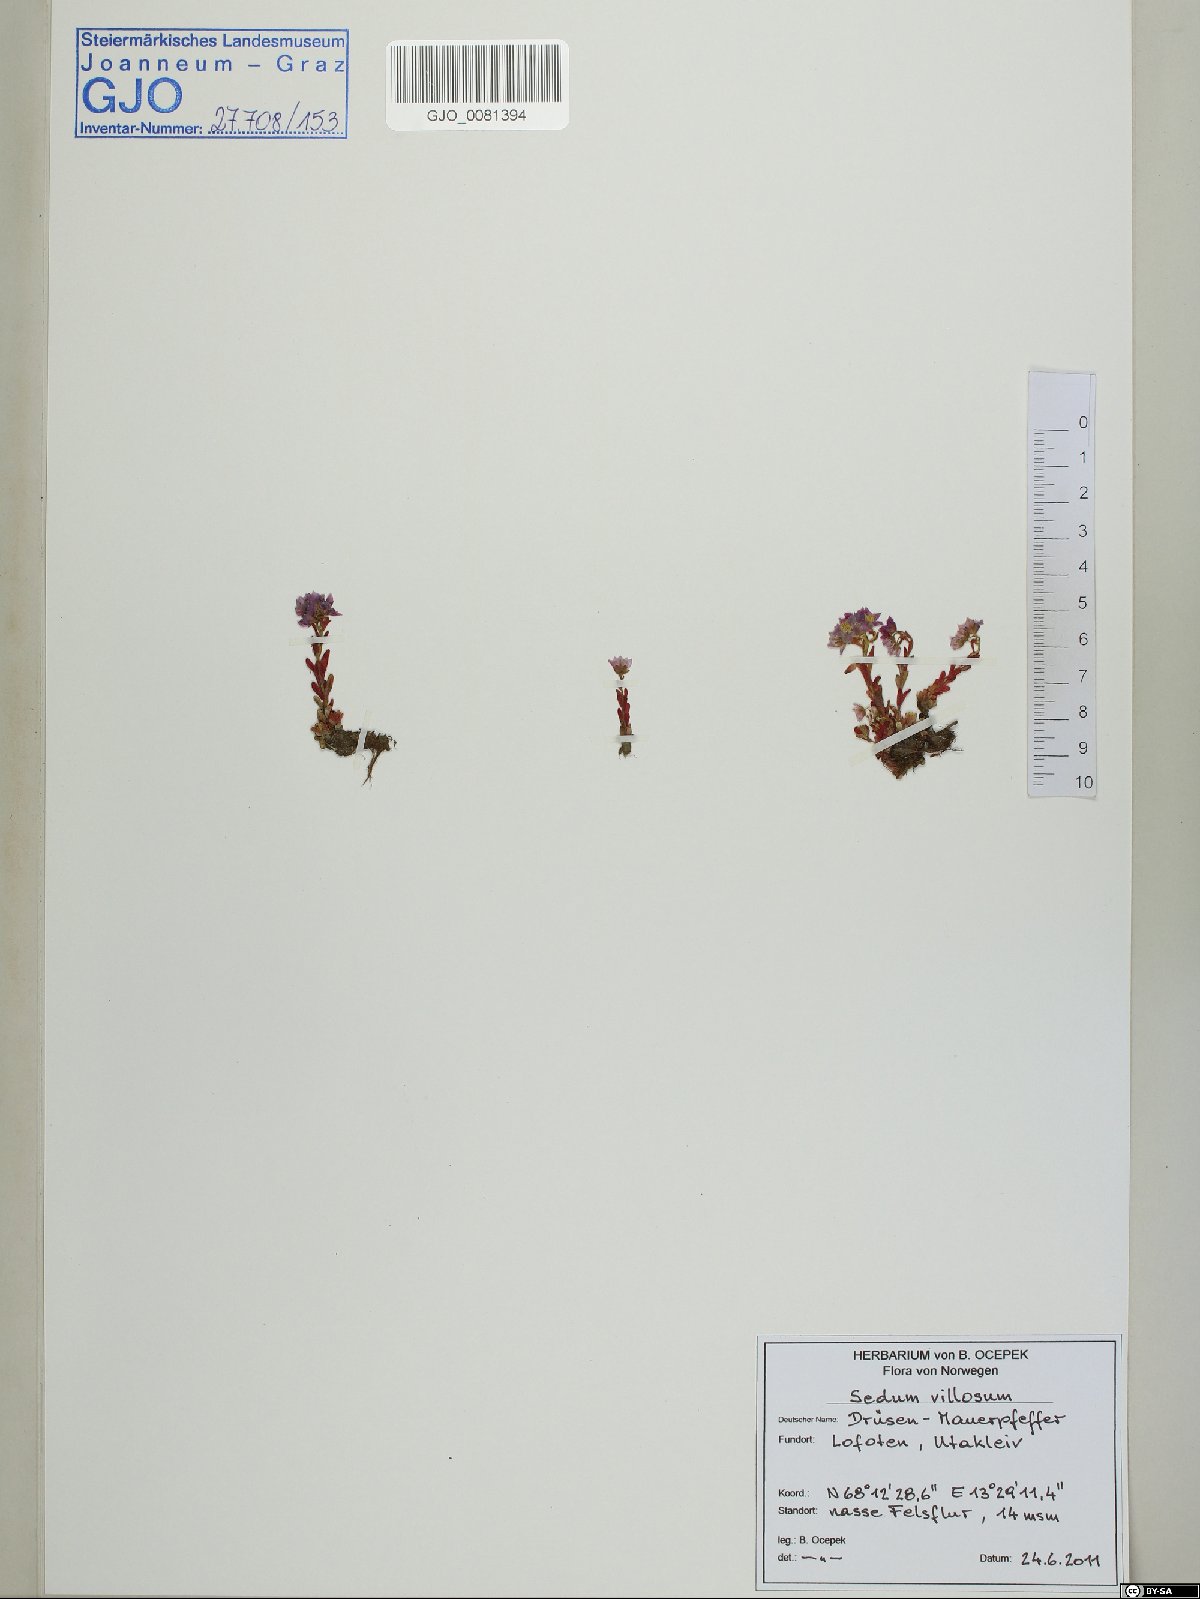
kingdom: Plantae
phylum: Tracheophyta
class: Magnoliopsida
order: Saxifragales
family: Crassulaceae
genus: Sedum
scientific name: Sedum villosum
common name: Hairy stonecrop
